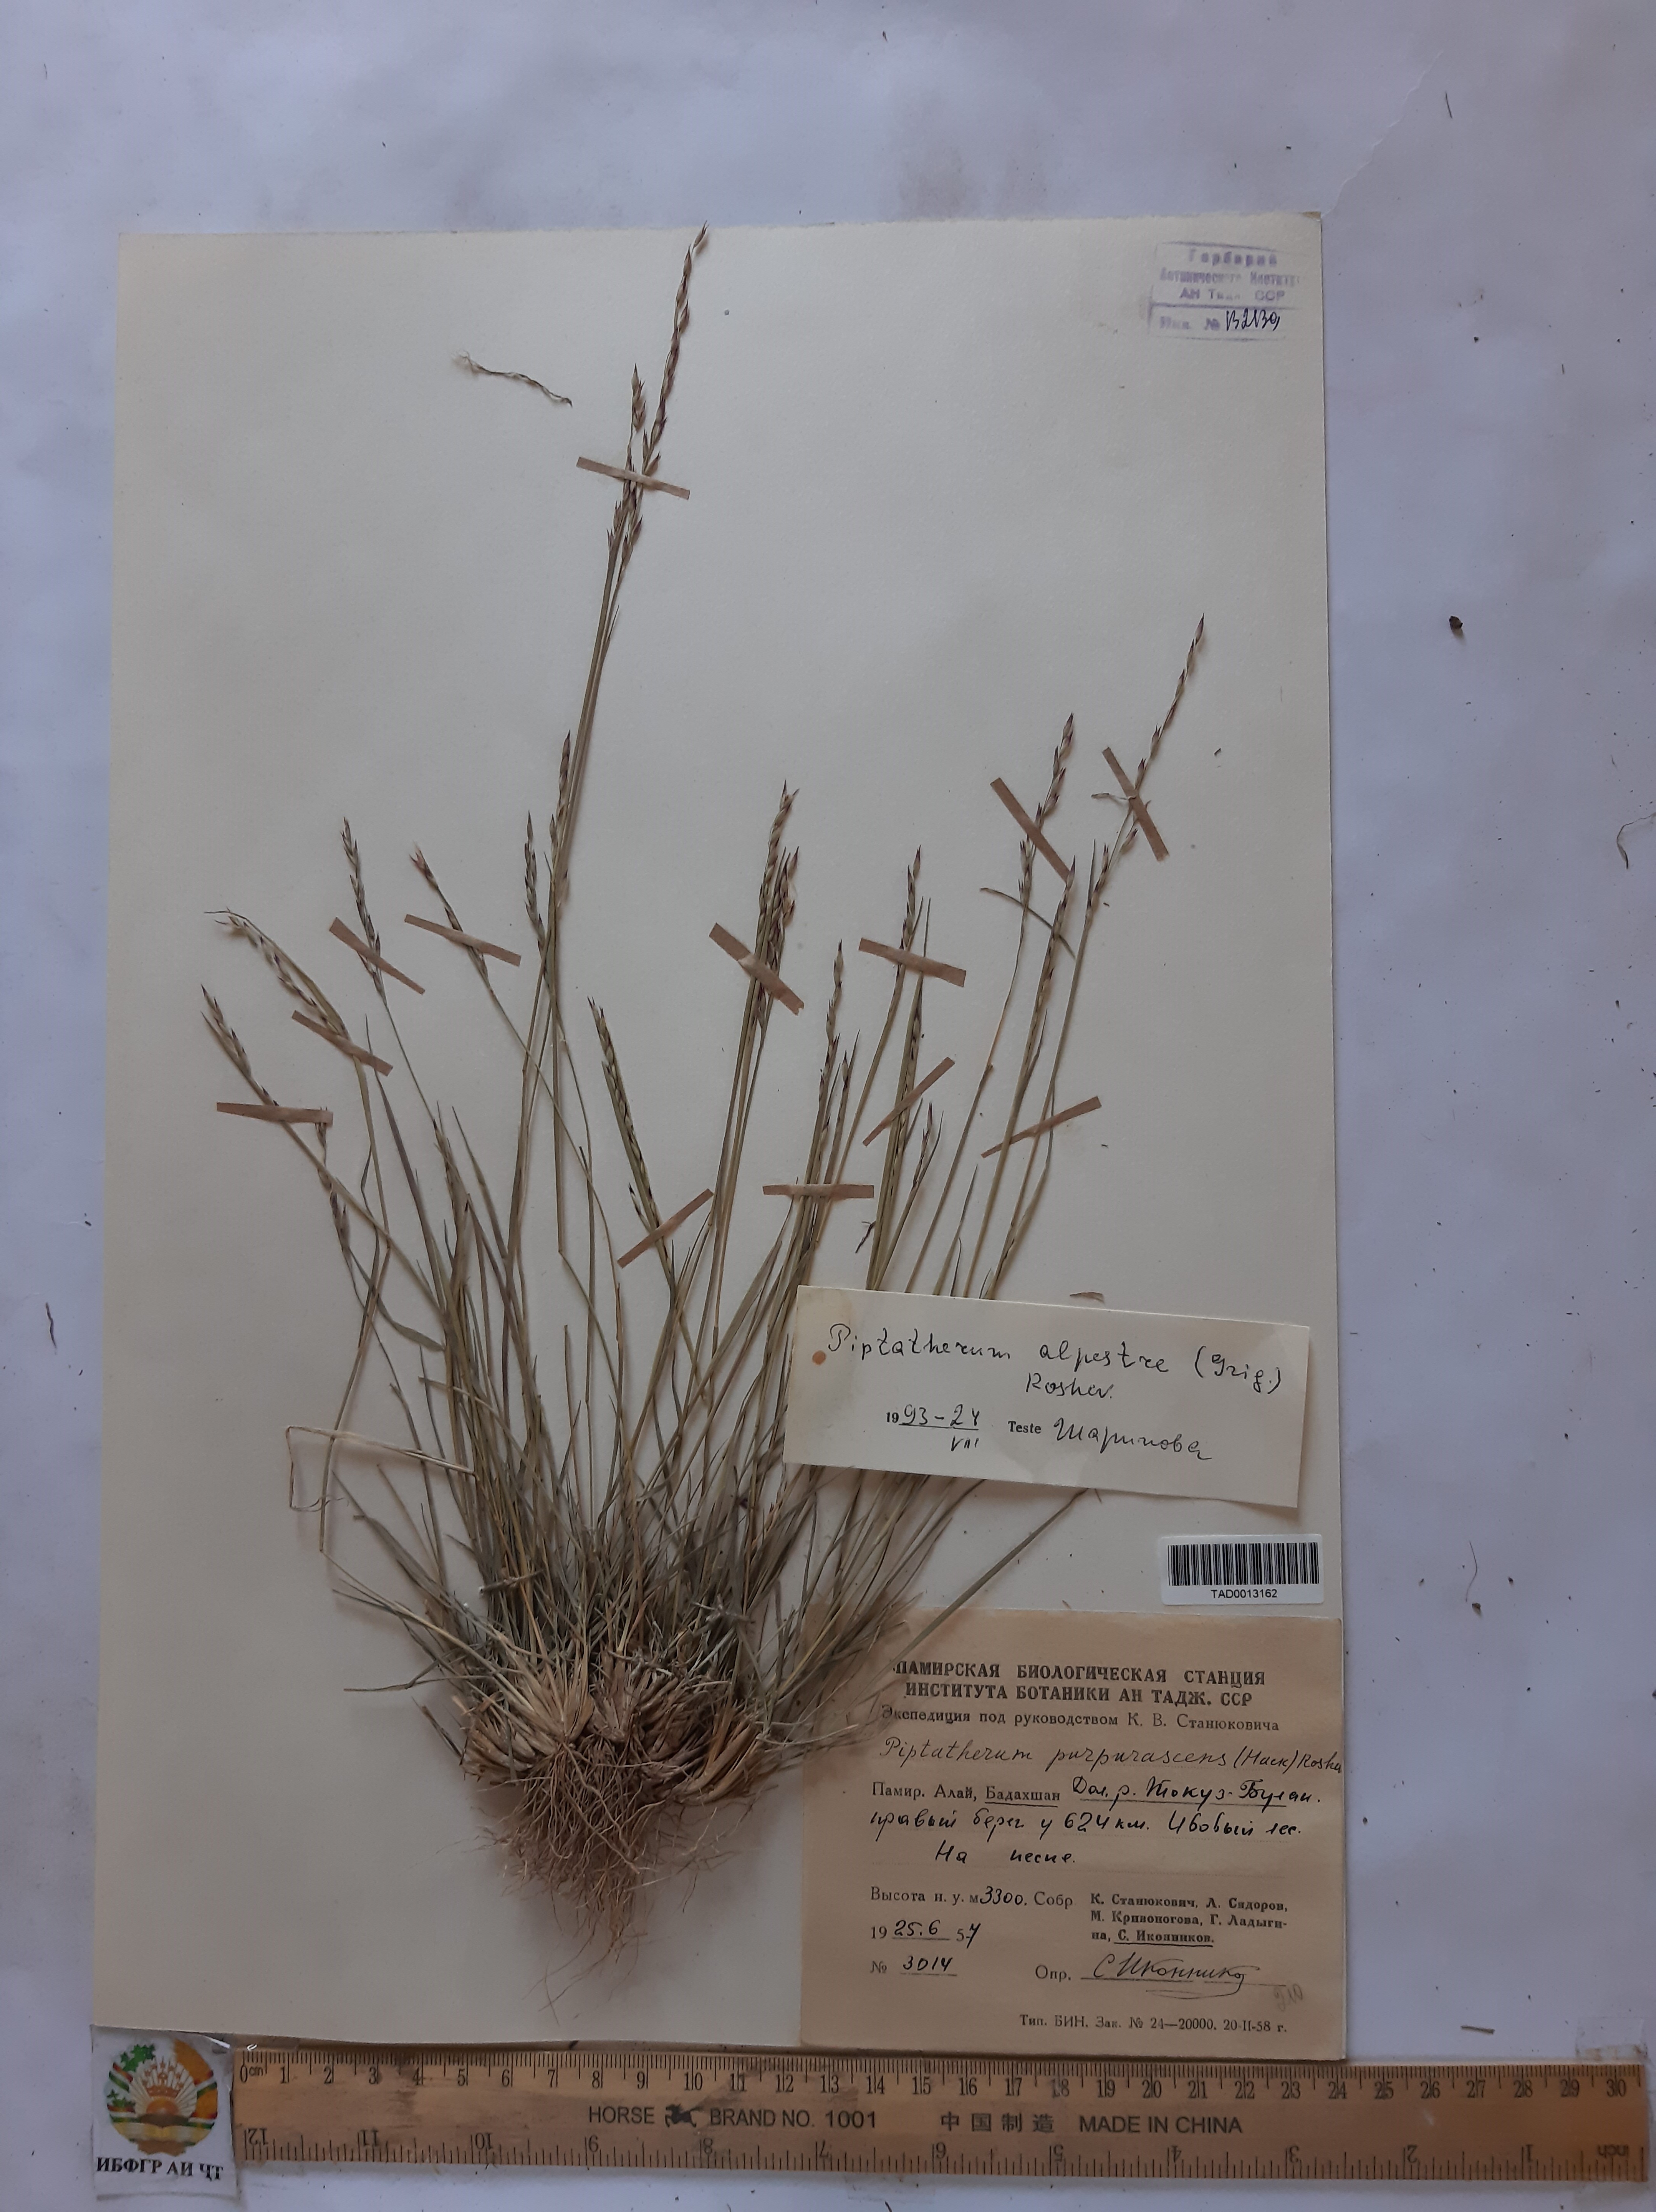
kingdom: Plantae
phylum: Tracheophyta
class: Liliopsida
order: Poales
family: Poaceae
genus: Piptatherum
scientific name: Piptatherum alpestre
